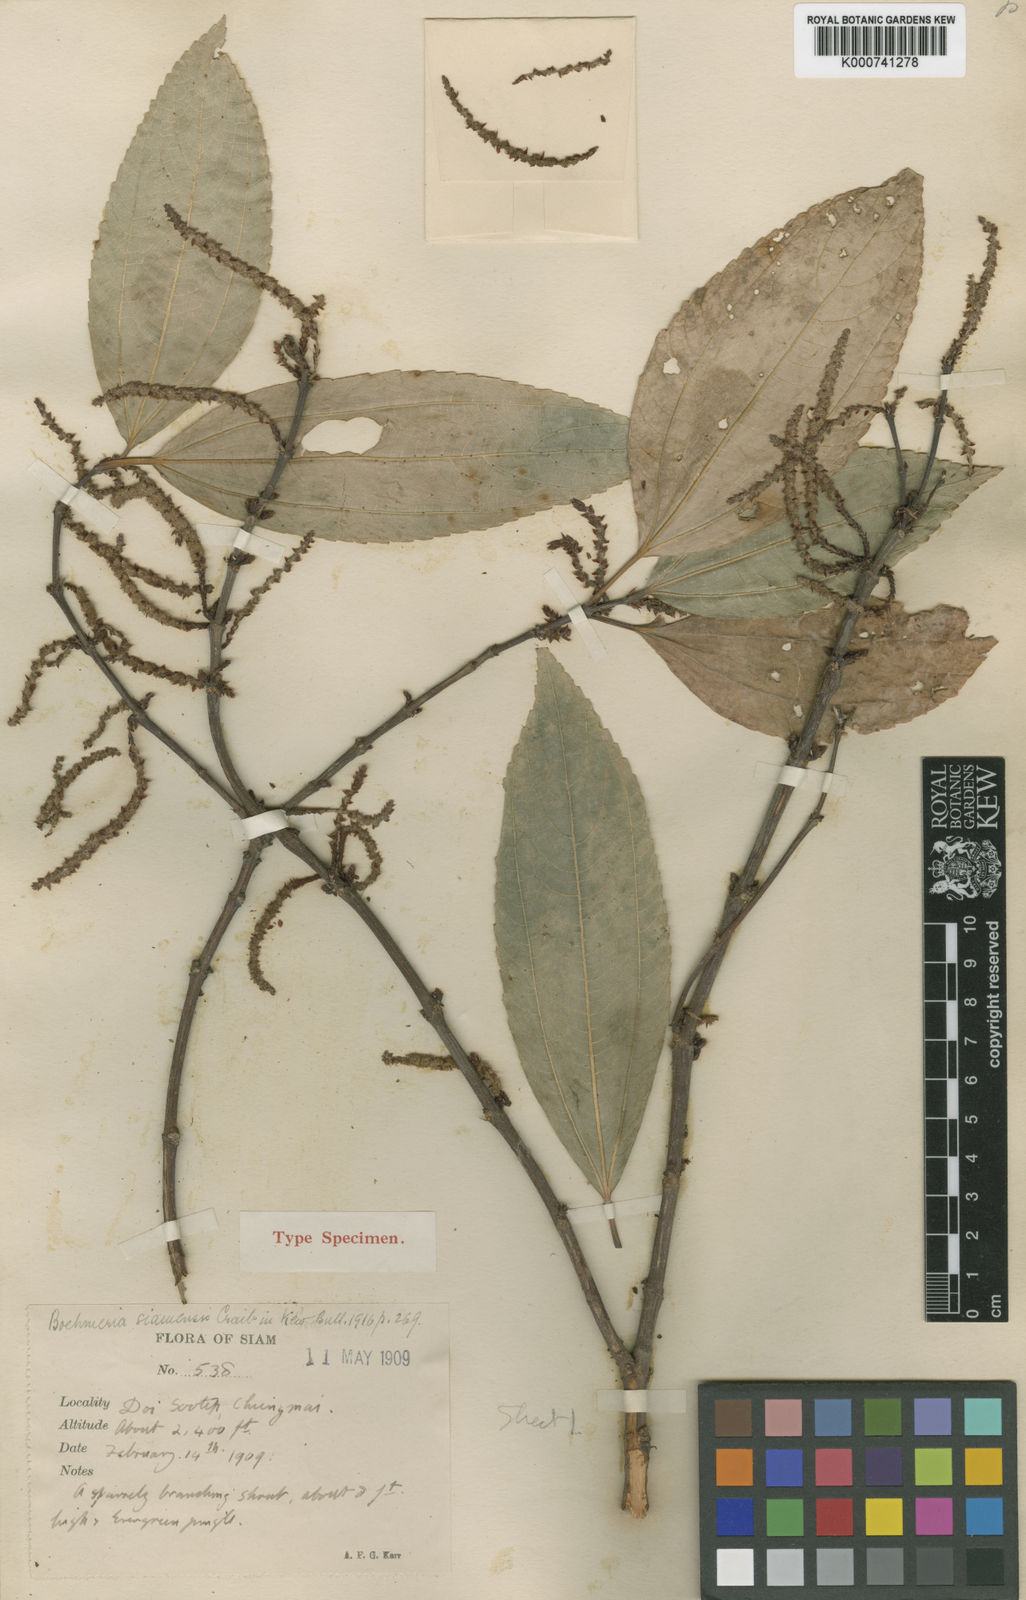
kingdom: Plantae
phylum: Tracheophyta
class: Magnoliopsida
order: Rosales
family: Urticaceae
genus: Boehmeria
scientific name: Boehmeria siamensis
